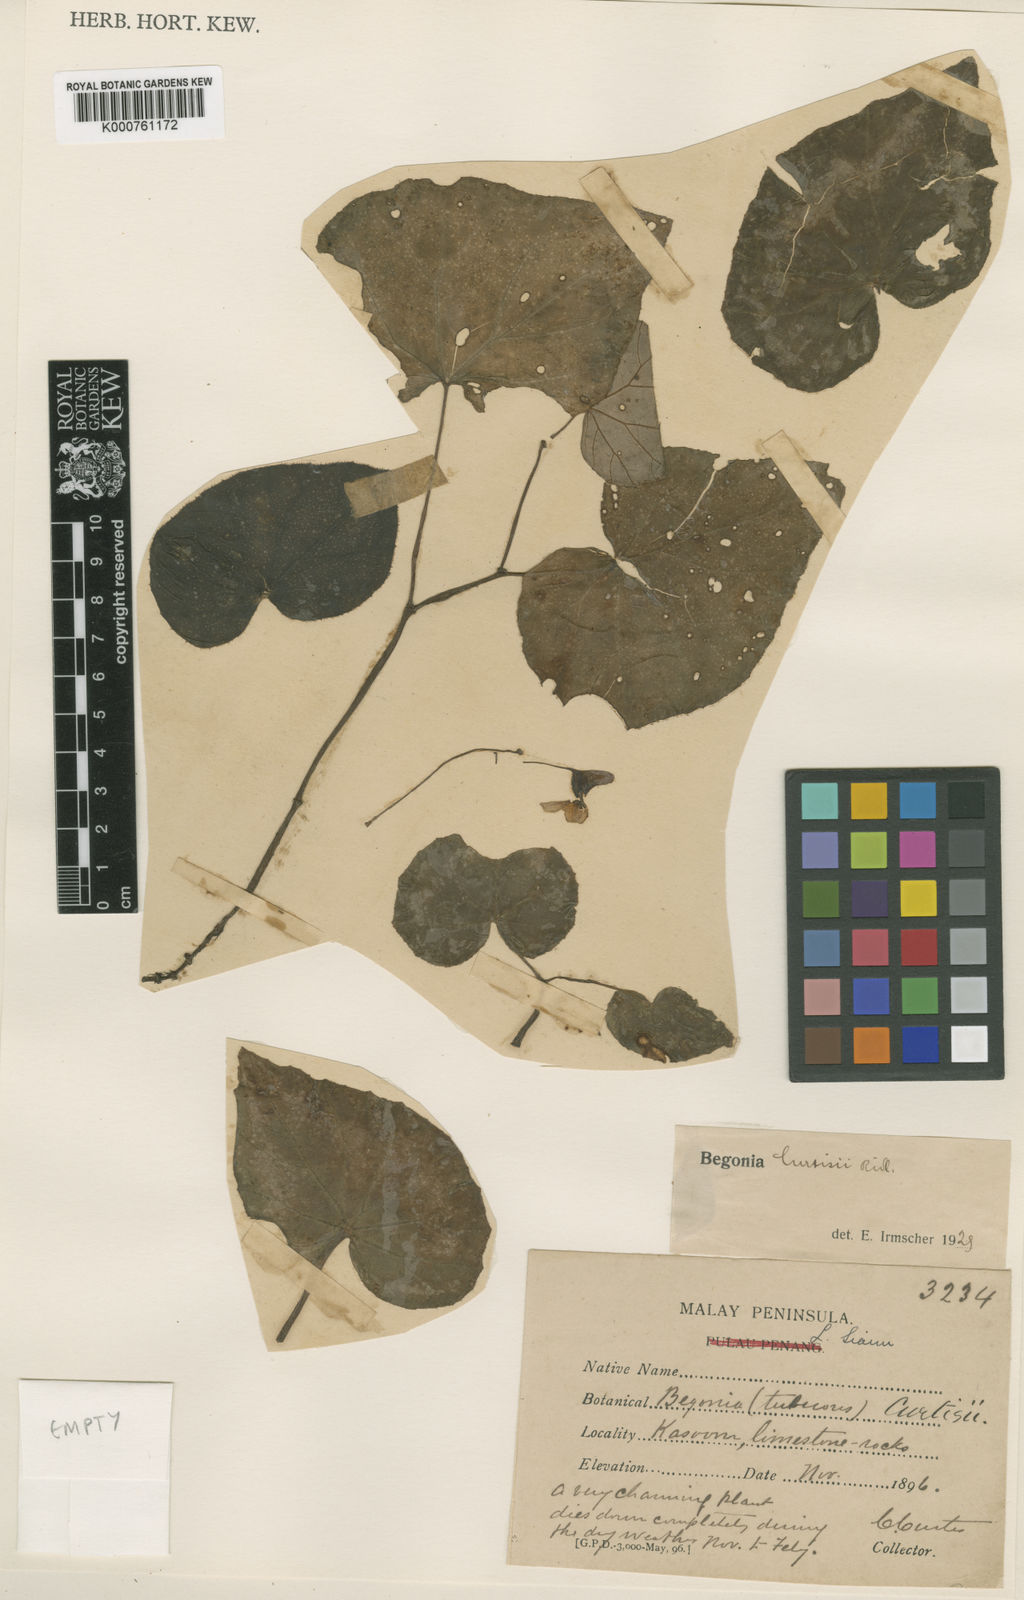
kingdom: Plantae
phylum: Tracheophyta
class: Magnoliopsida
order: Cucurbitales
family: Begoniaceae
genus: Begonia
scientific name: Begonia curtisii
